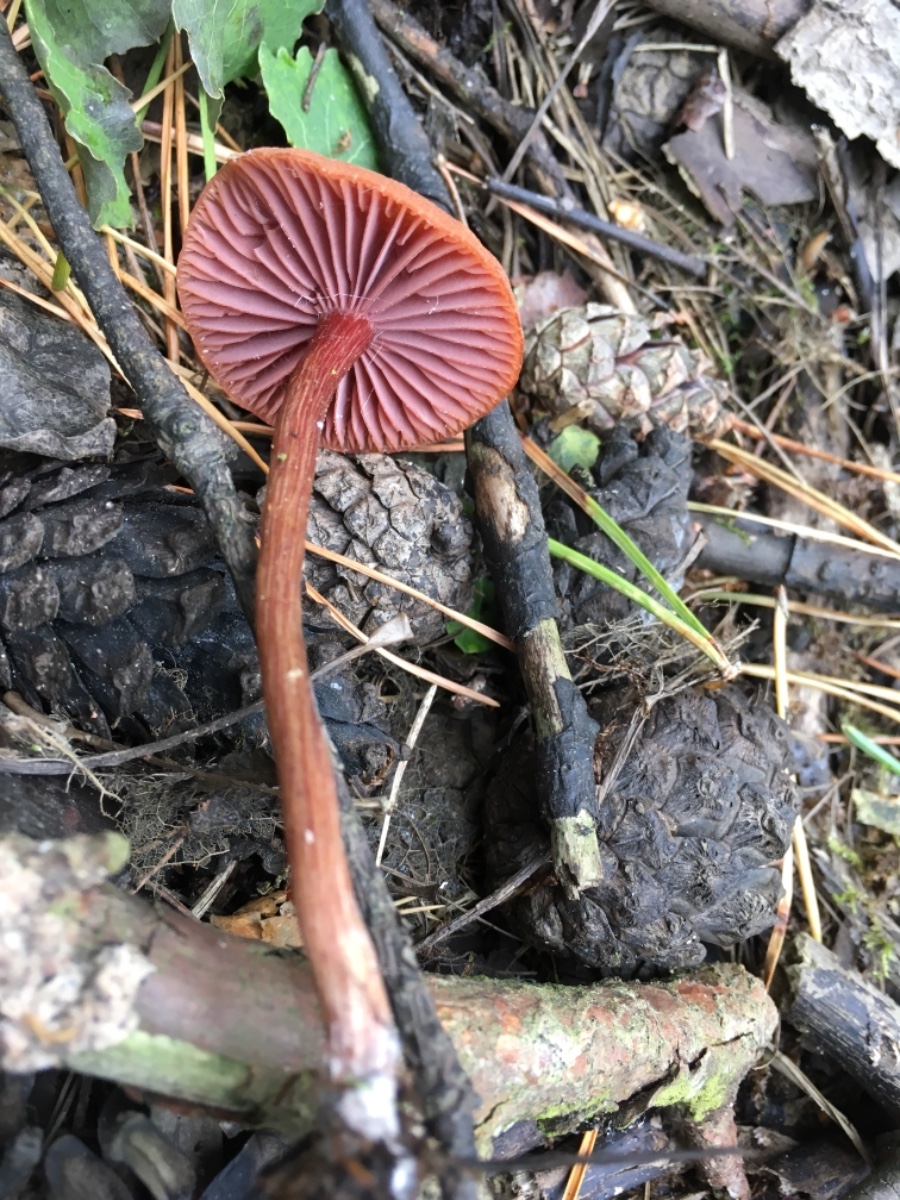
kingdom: Fungi
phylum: Basidiomycota
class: Agaricomycetes
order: Agaricales
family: Hydnangiaceae
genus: Laccaria
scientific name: Laccaria
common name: ametysthat
